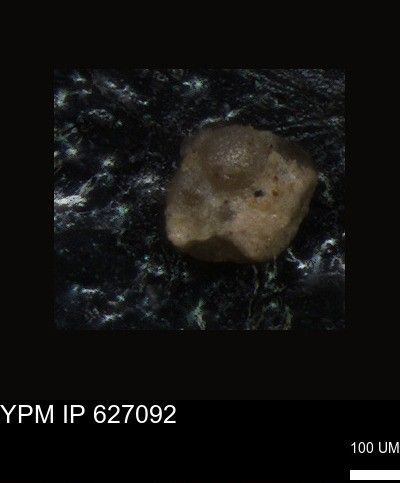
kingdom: Chromista
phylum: Foraminifera
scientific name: Foraminifera
